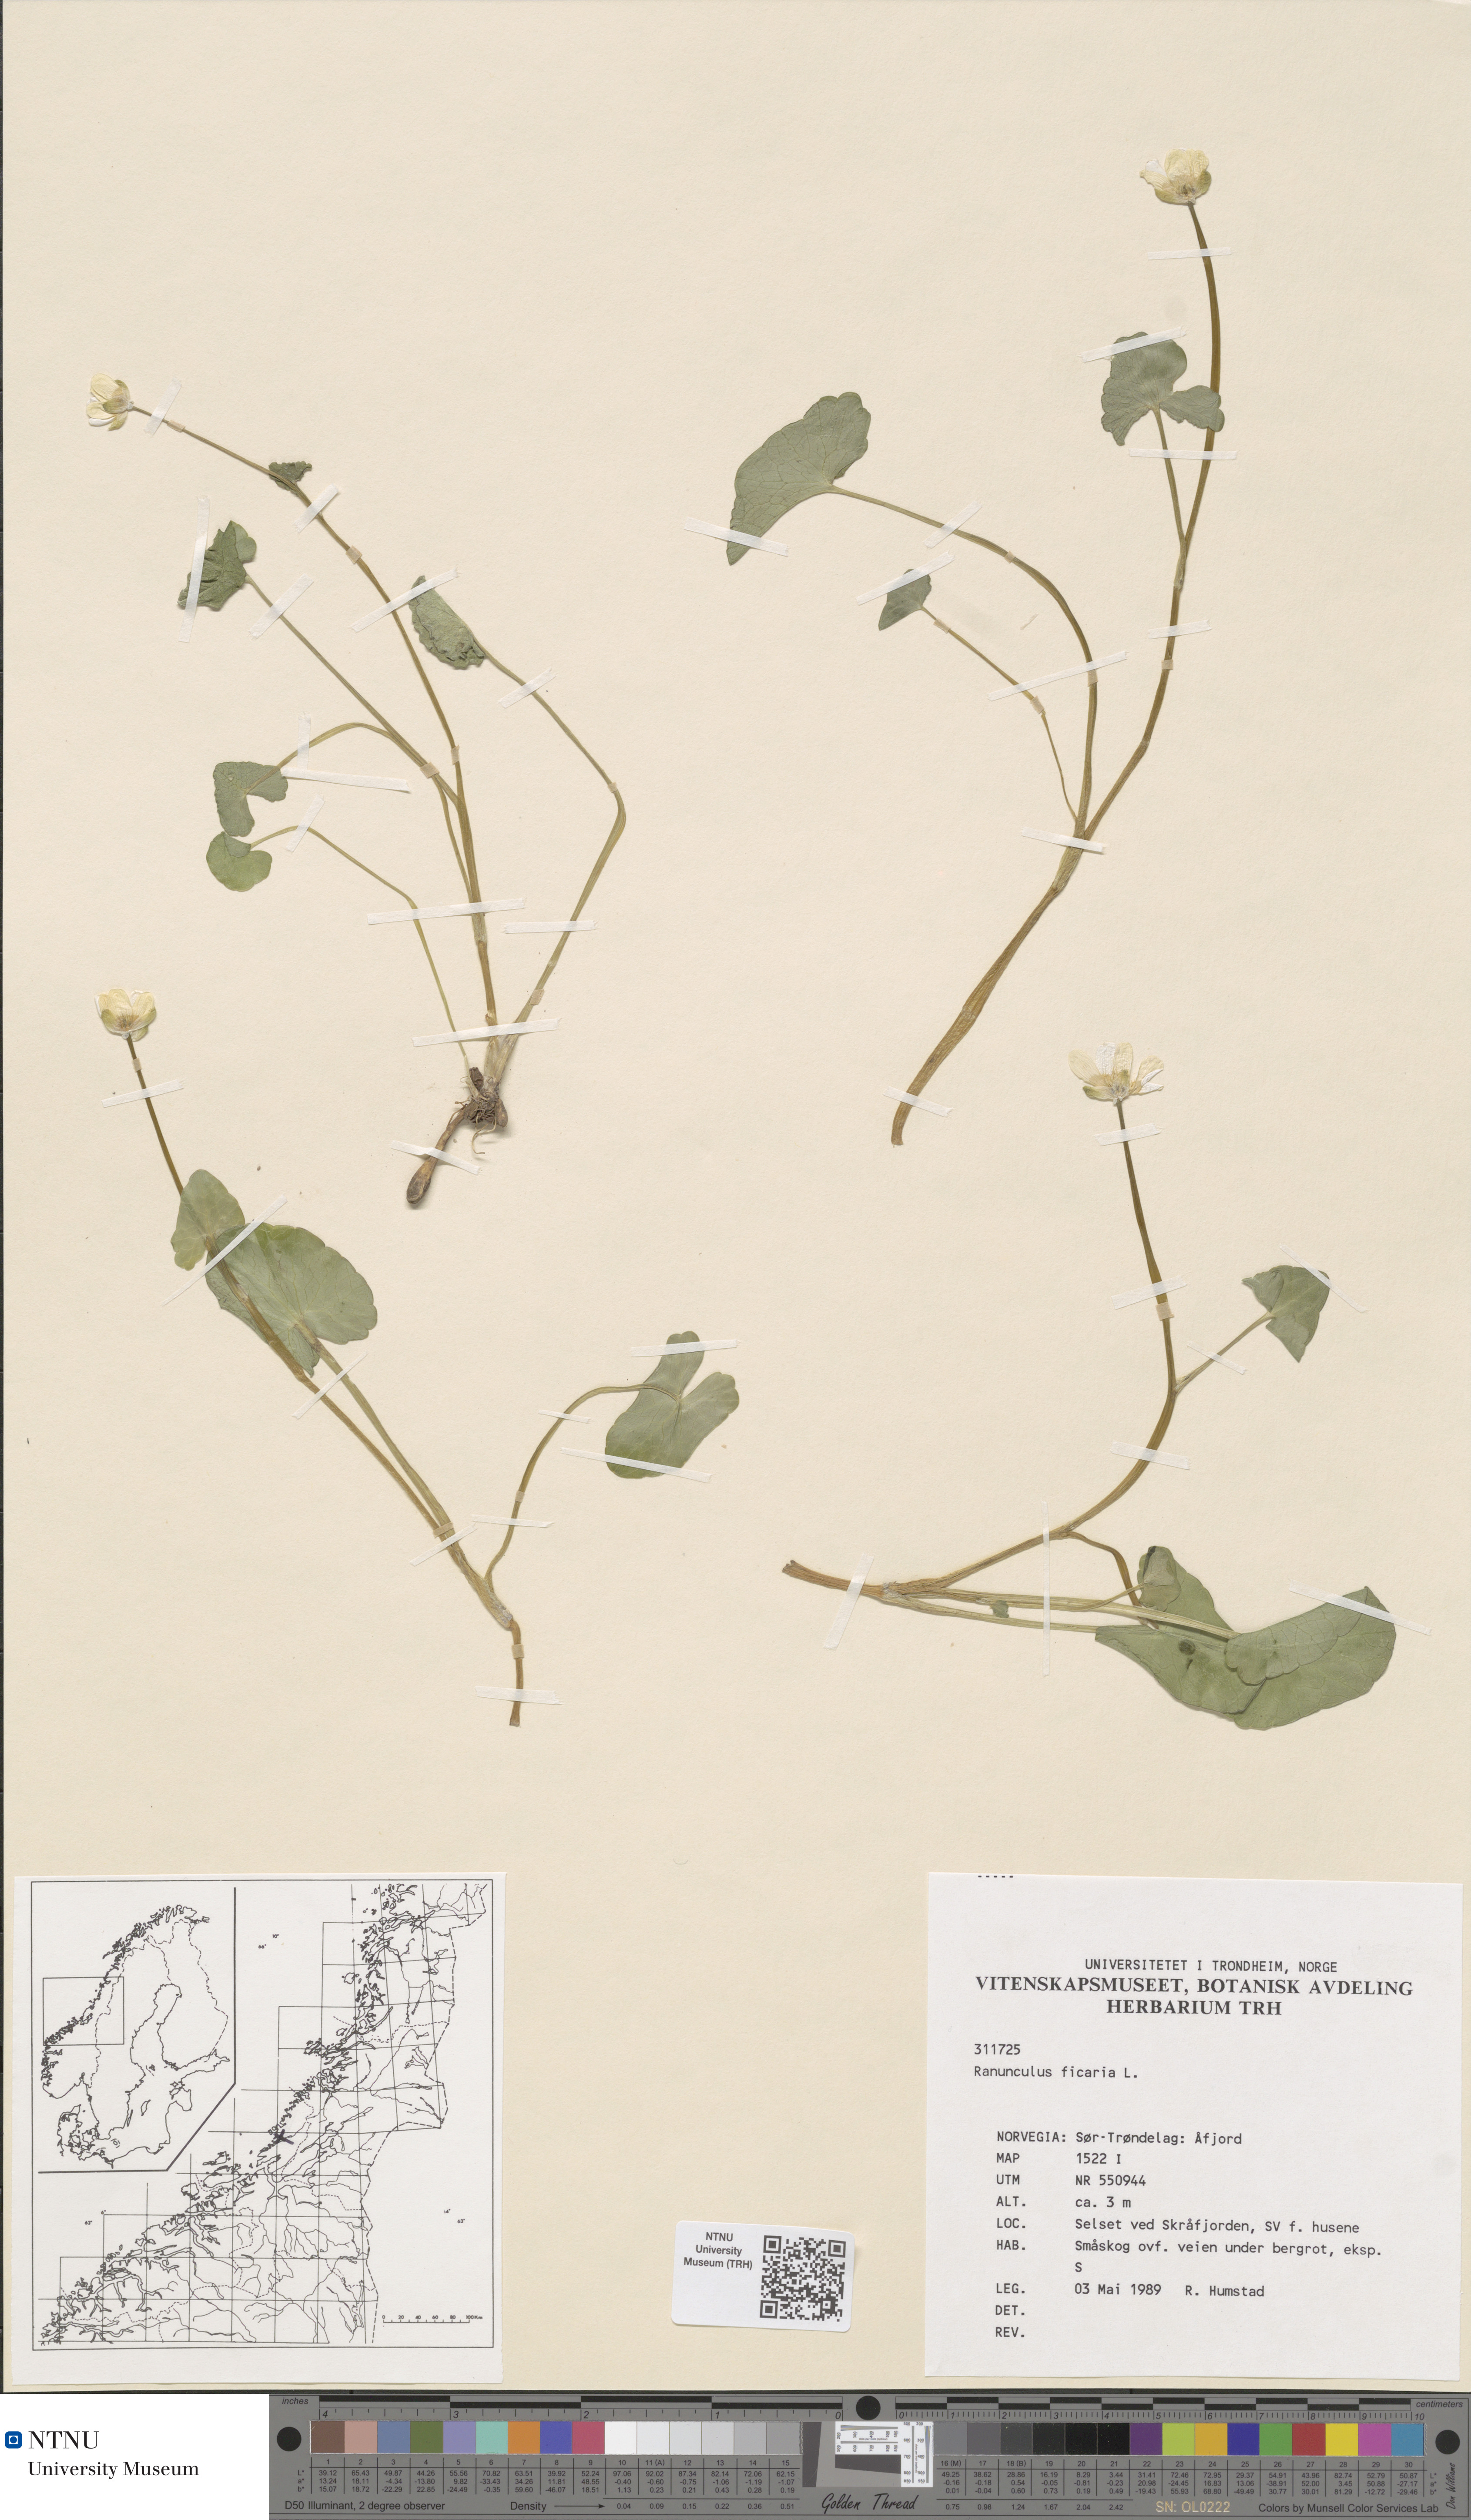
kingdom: Plantae
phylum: Tracheophyta
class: Magnoliopsida
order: Ranunculales
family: Ranunculaceae
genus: Ficaria
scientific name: Ficaria verna
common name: Lesser celandine
